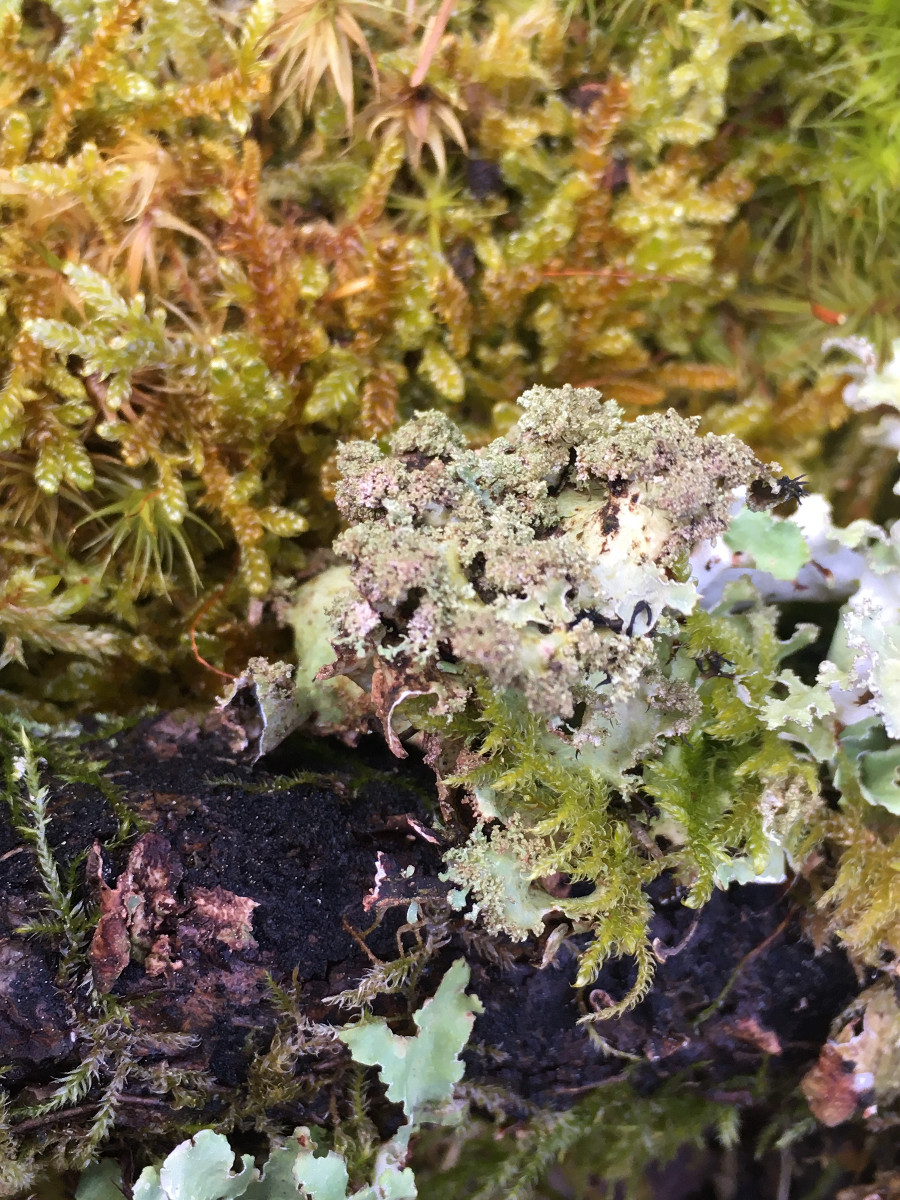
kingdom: Fungi
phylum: Ascomycota
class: Lecanoromycetes
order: Lecanorales
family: Parmeliaceae
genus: Platismatia
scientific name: Platismatia glauca
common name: blågrå papirlav
